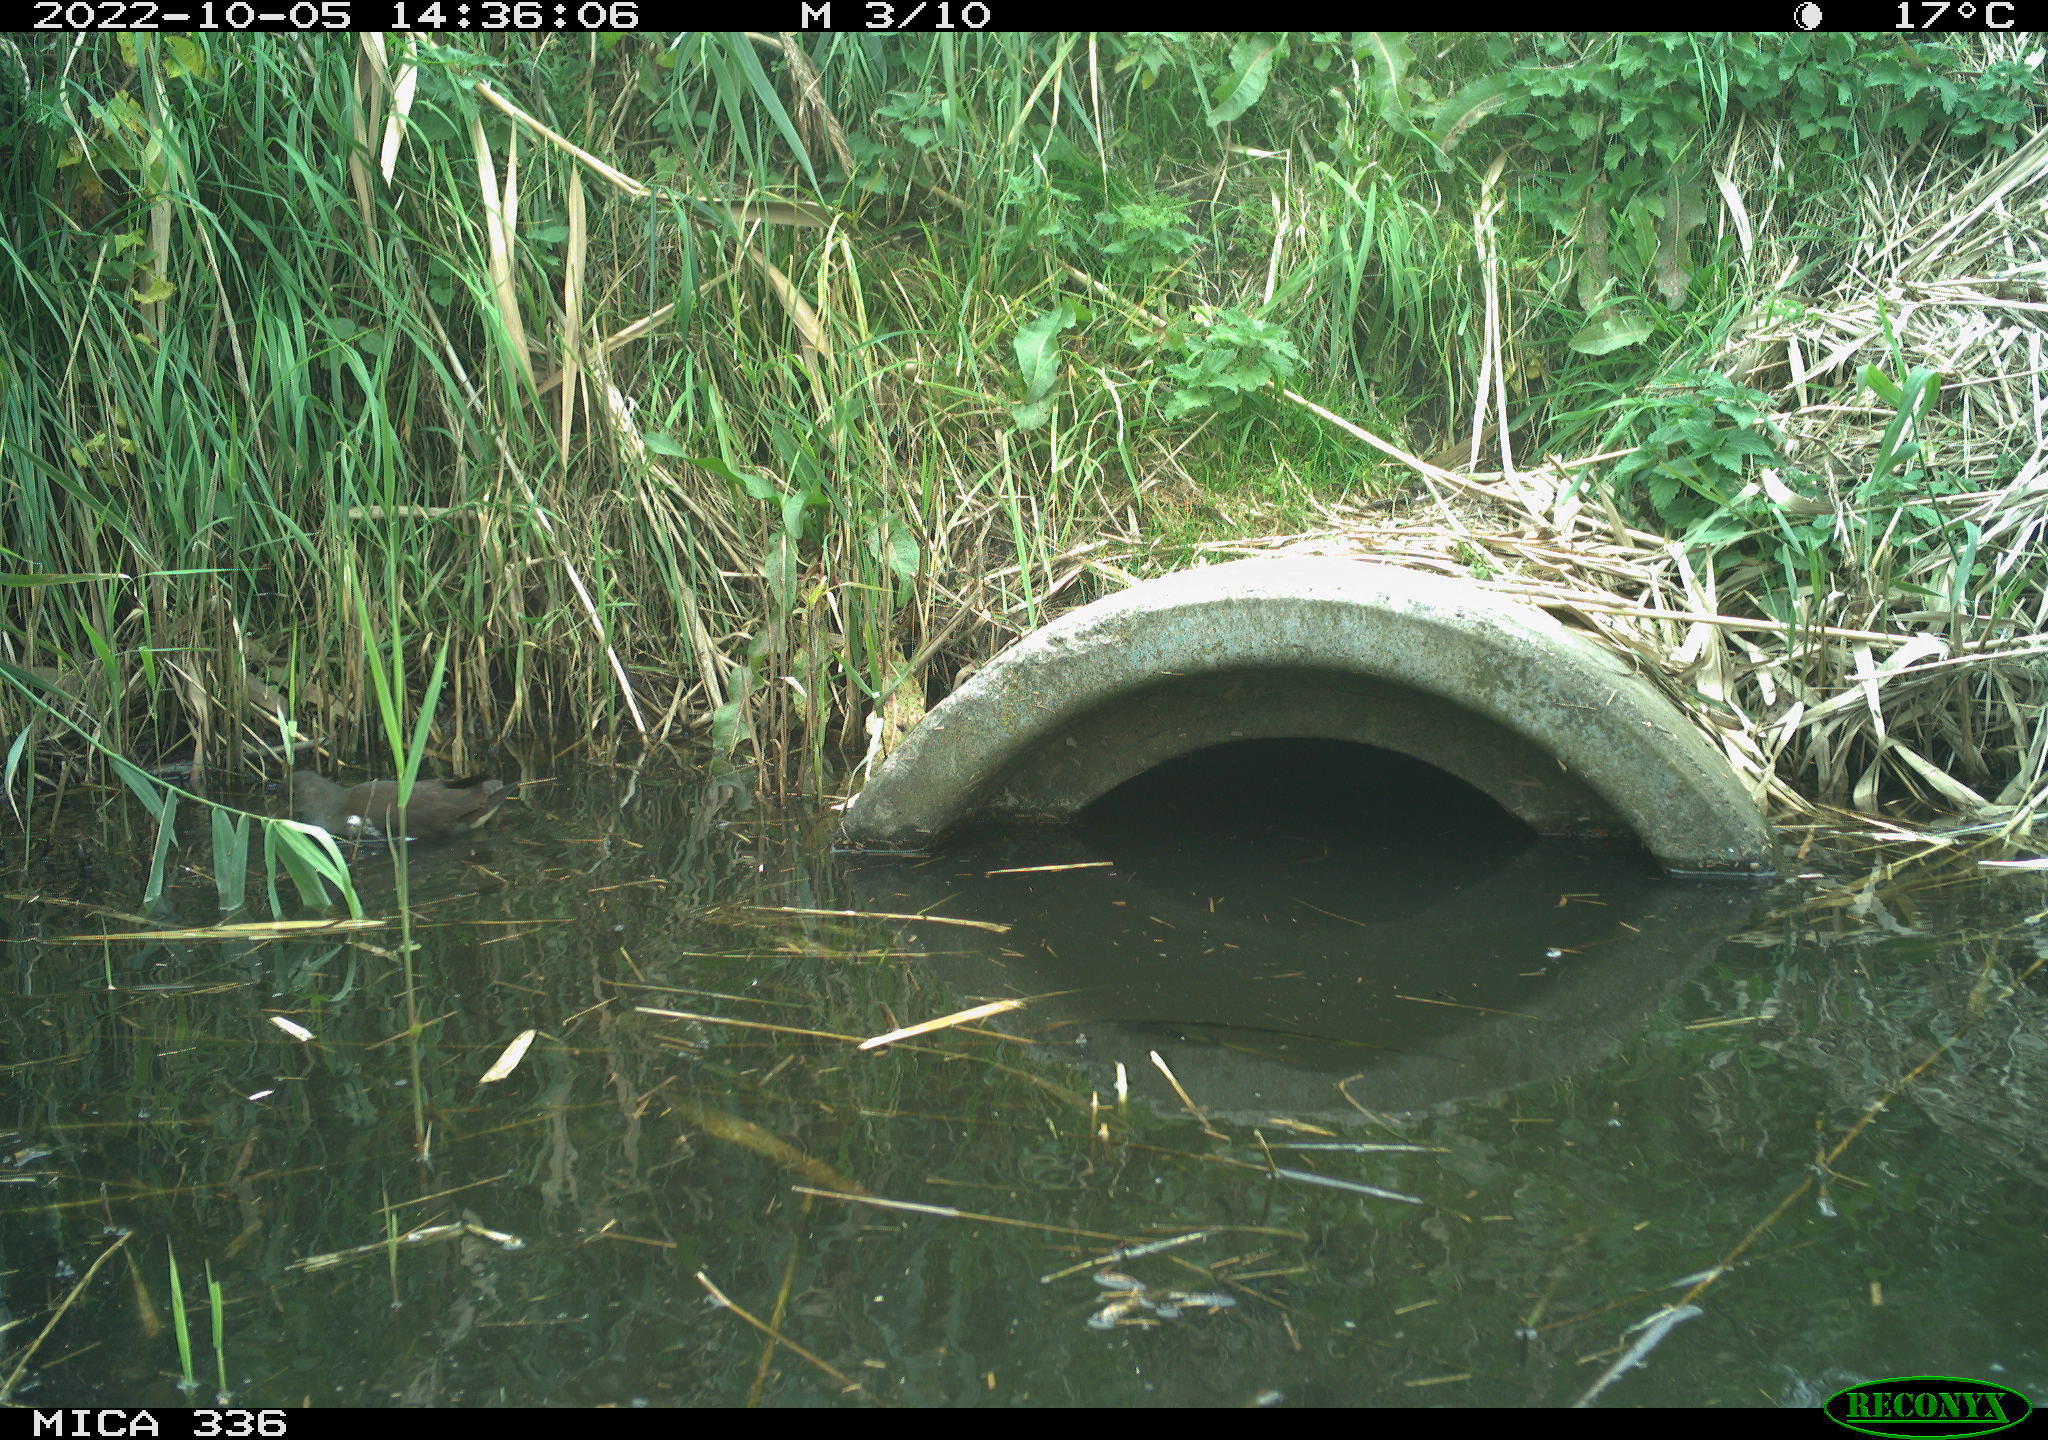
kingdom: Animalia
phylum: Chordata
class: Aves
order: Gruiformes
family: Rallidae
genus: Gallinula
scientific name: Gallinula chloropus
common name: Common moorhen
